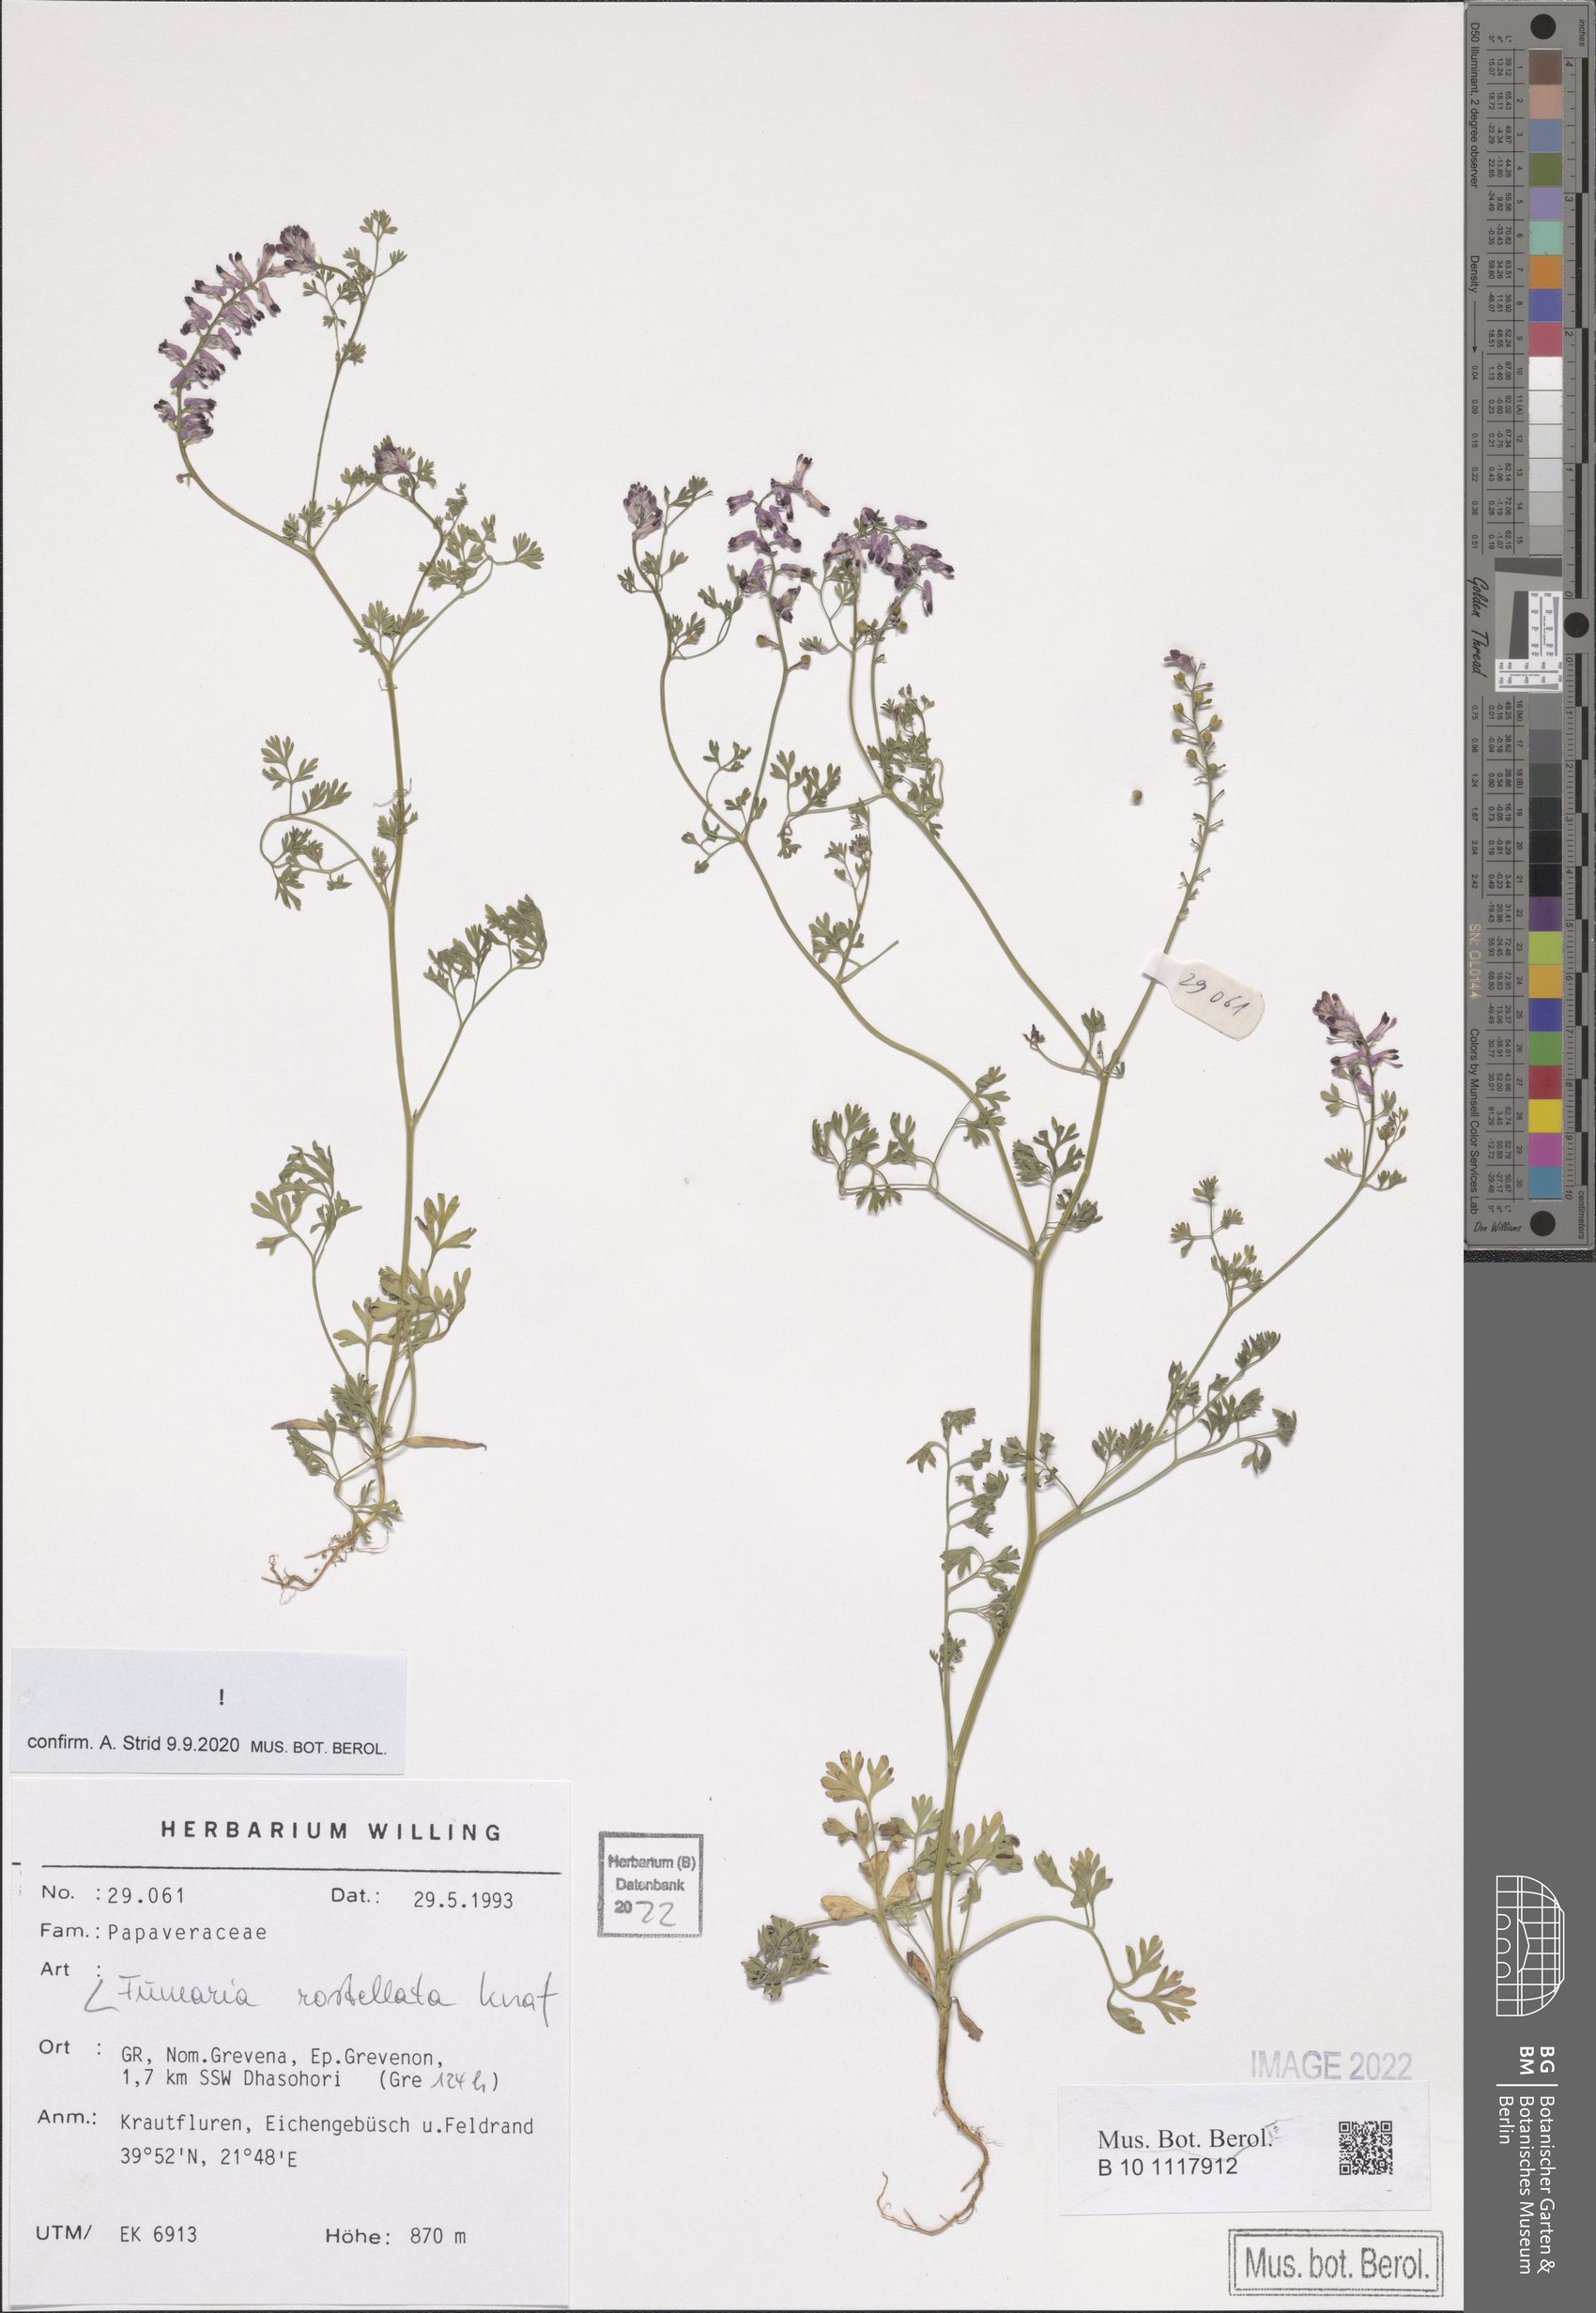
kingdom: Plantae
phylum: Tracheophyta
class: Magnoliopsida
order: Ranunculales
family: Papaveraceae
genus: Fumaria
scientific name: Fumaria rostellata
